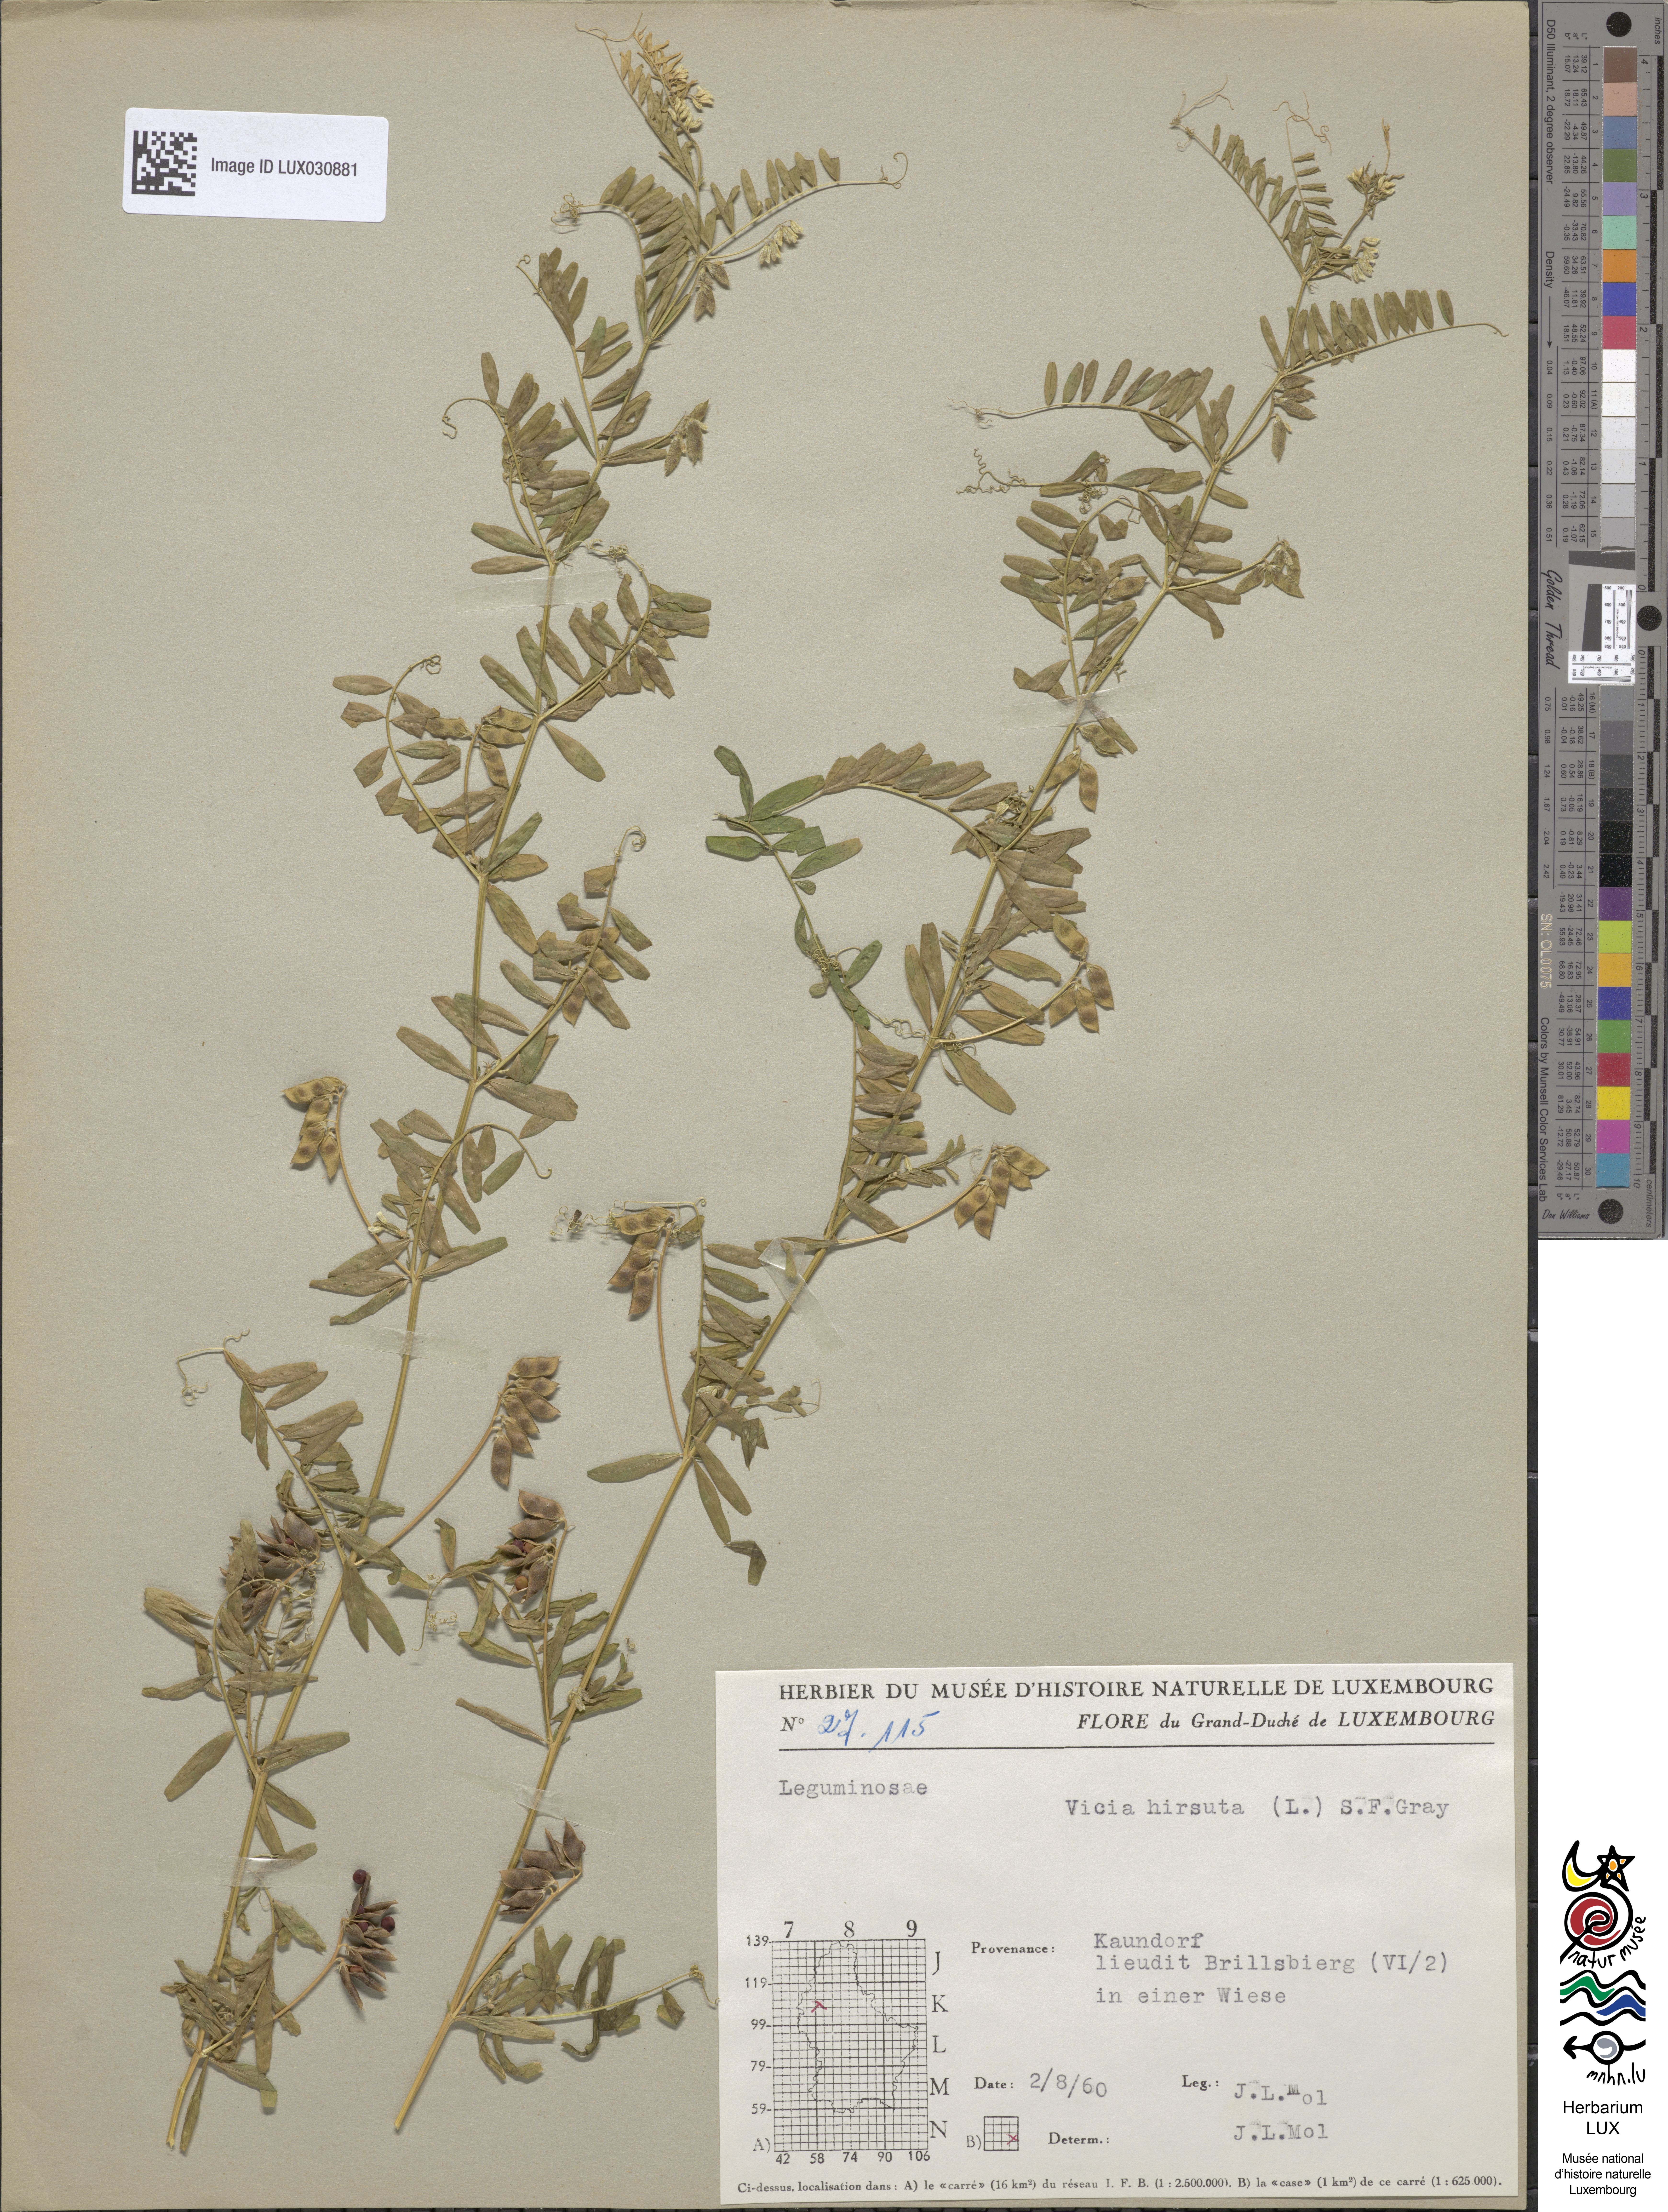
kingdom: Plantae
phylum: Tracheophyta
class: Magnoliopsida
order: Fabales
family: Fabaceae
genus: Vicia
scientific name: Vicia hirsuta
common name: Tiny vetch
